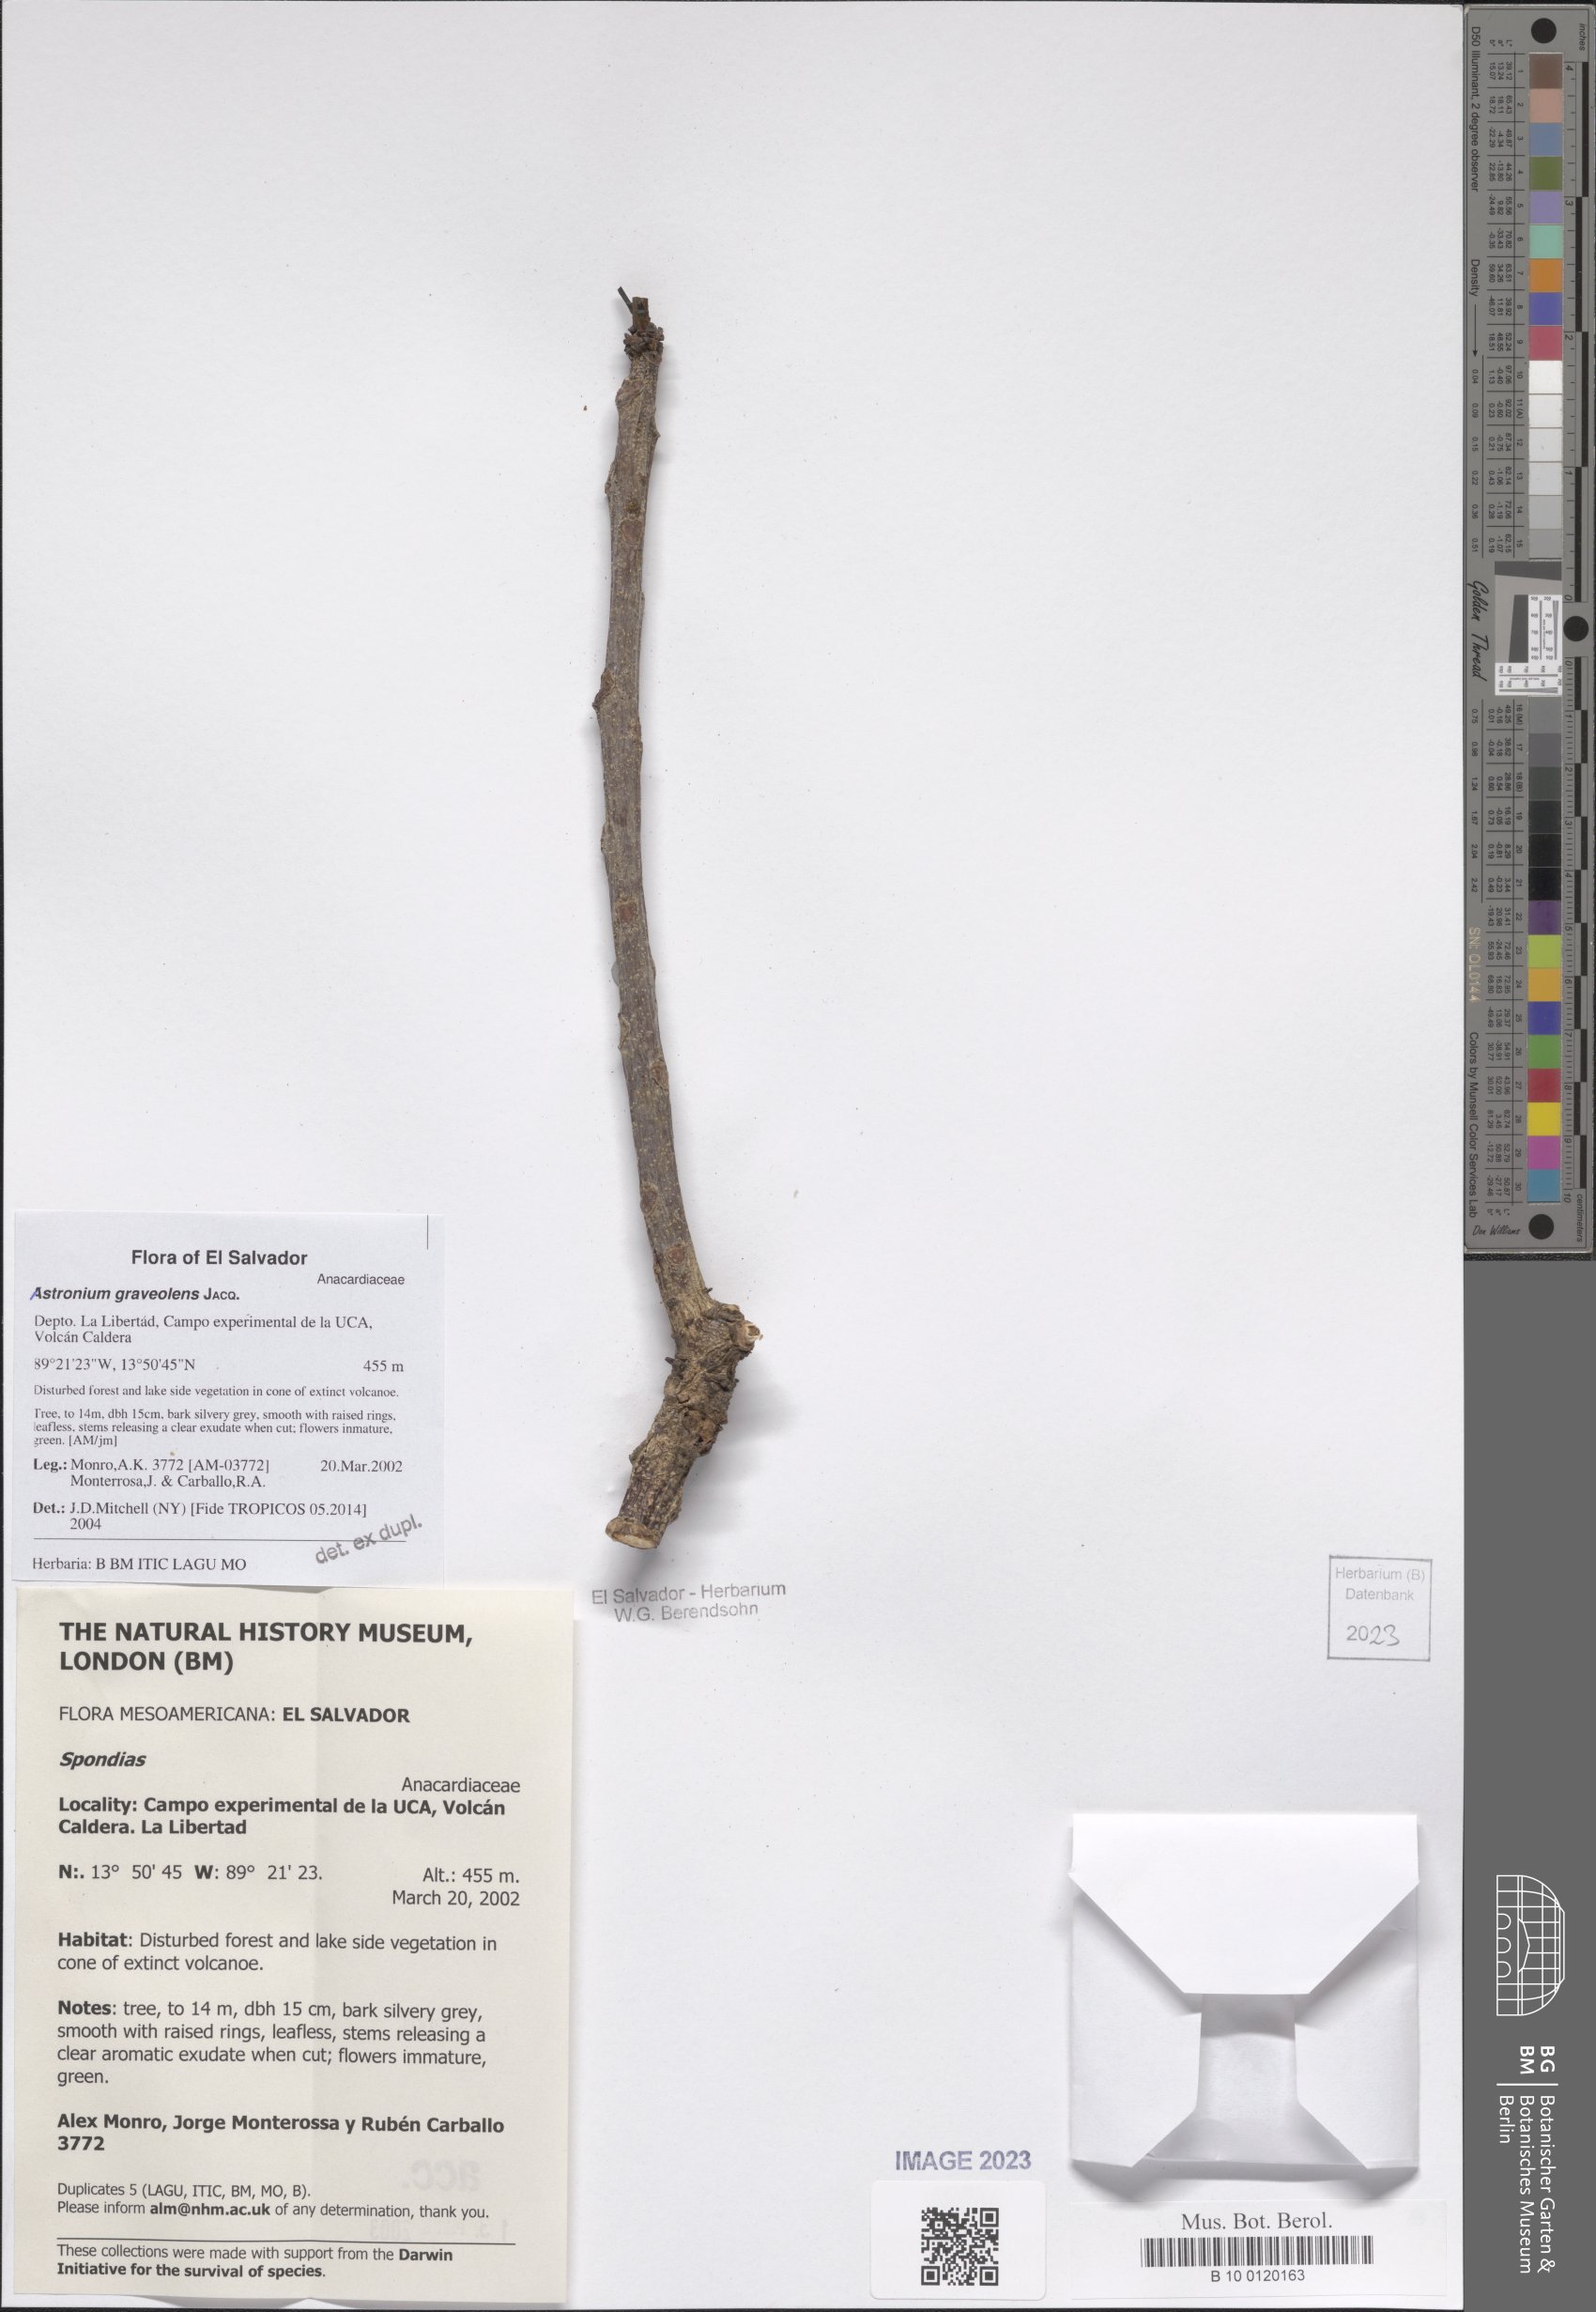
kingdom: Plantae
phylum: Tracheophyta
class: Magnoliopsida
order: Sapindales
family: Anacardiaceae
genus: Astronium
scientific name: Astronium graveolens
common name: Glassywood
